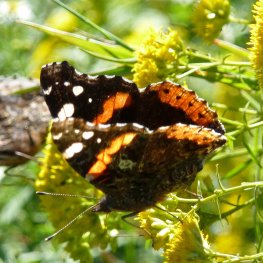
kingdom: Animalia
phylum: Arthropoda
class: Insecta
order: Lepidoptera
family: Nymphalidae
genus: Vanessa
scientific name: Vanessa atalanta
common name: Red Admiral
